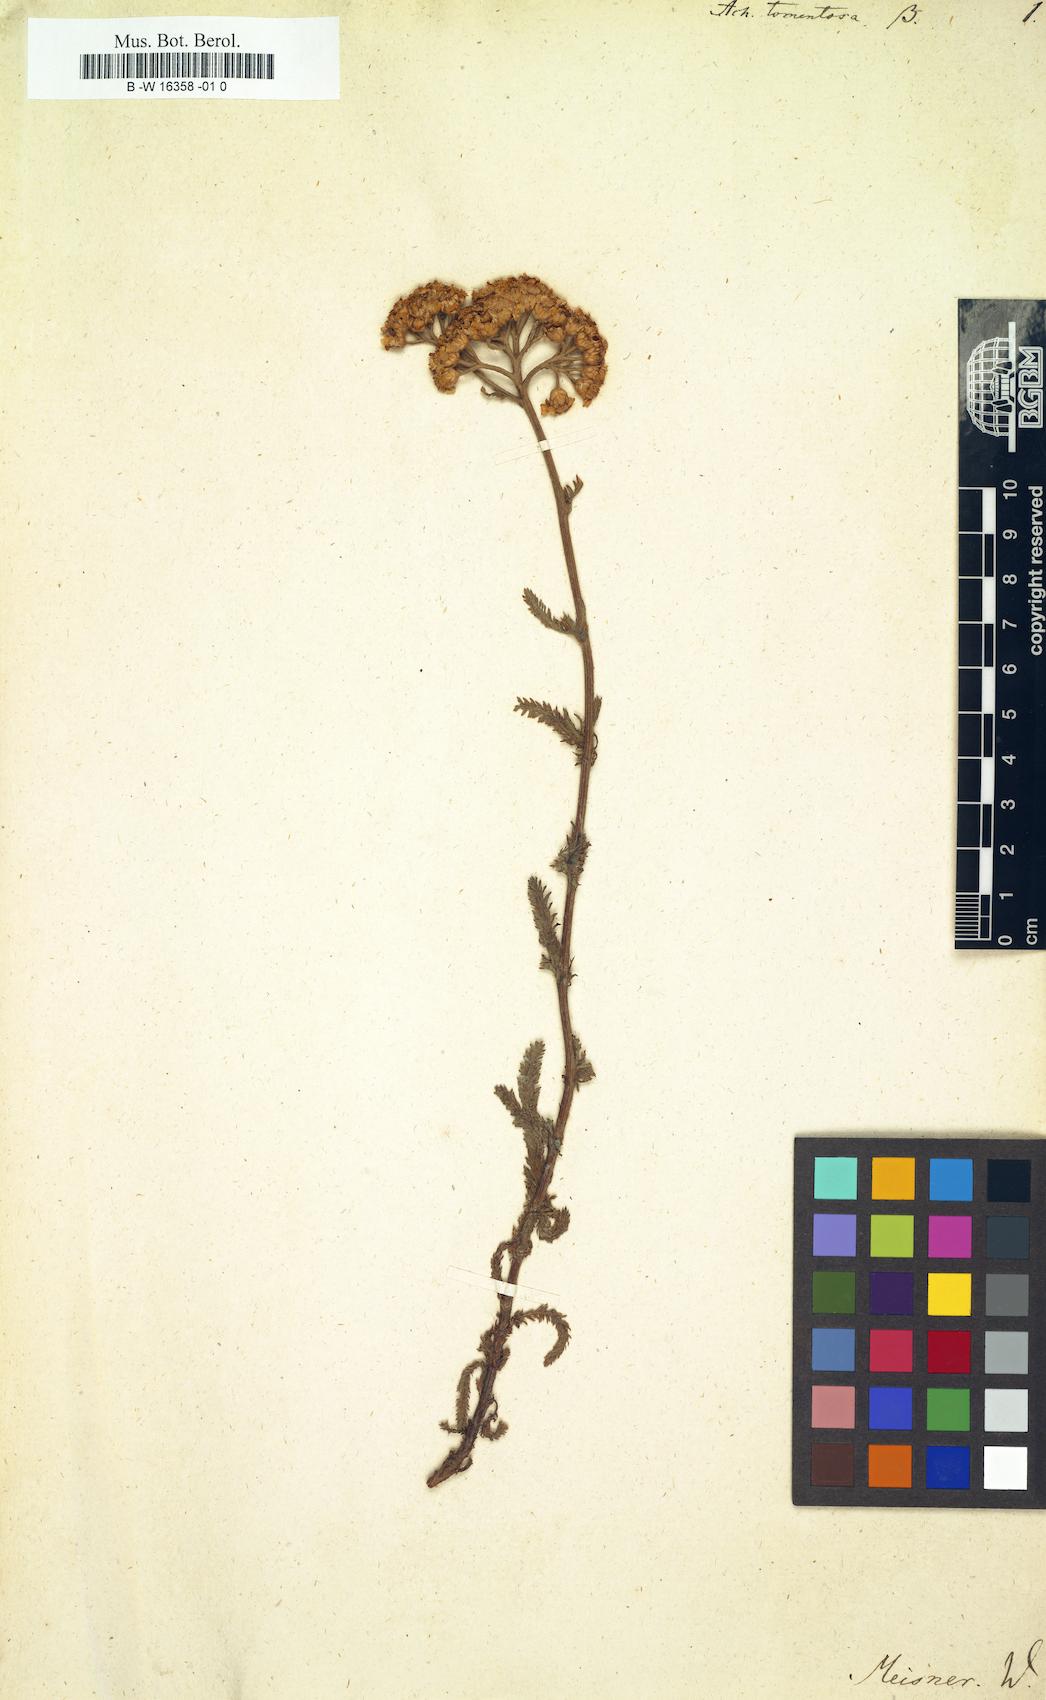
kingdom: Plantae
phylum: Tracheophyta
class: Magnoliopsida
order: Asterales
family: Asteraceae
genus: Achillea
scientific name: Achillea tomentosa
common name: Yellow milfoil
